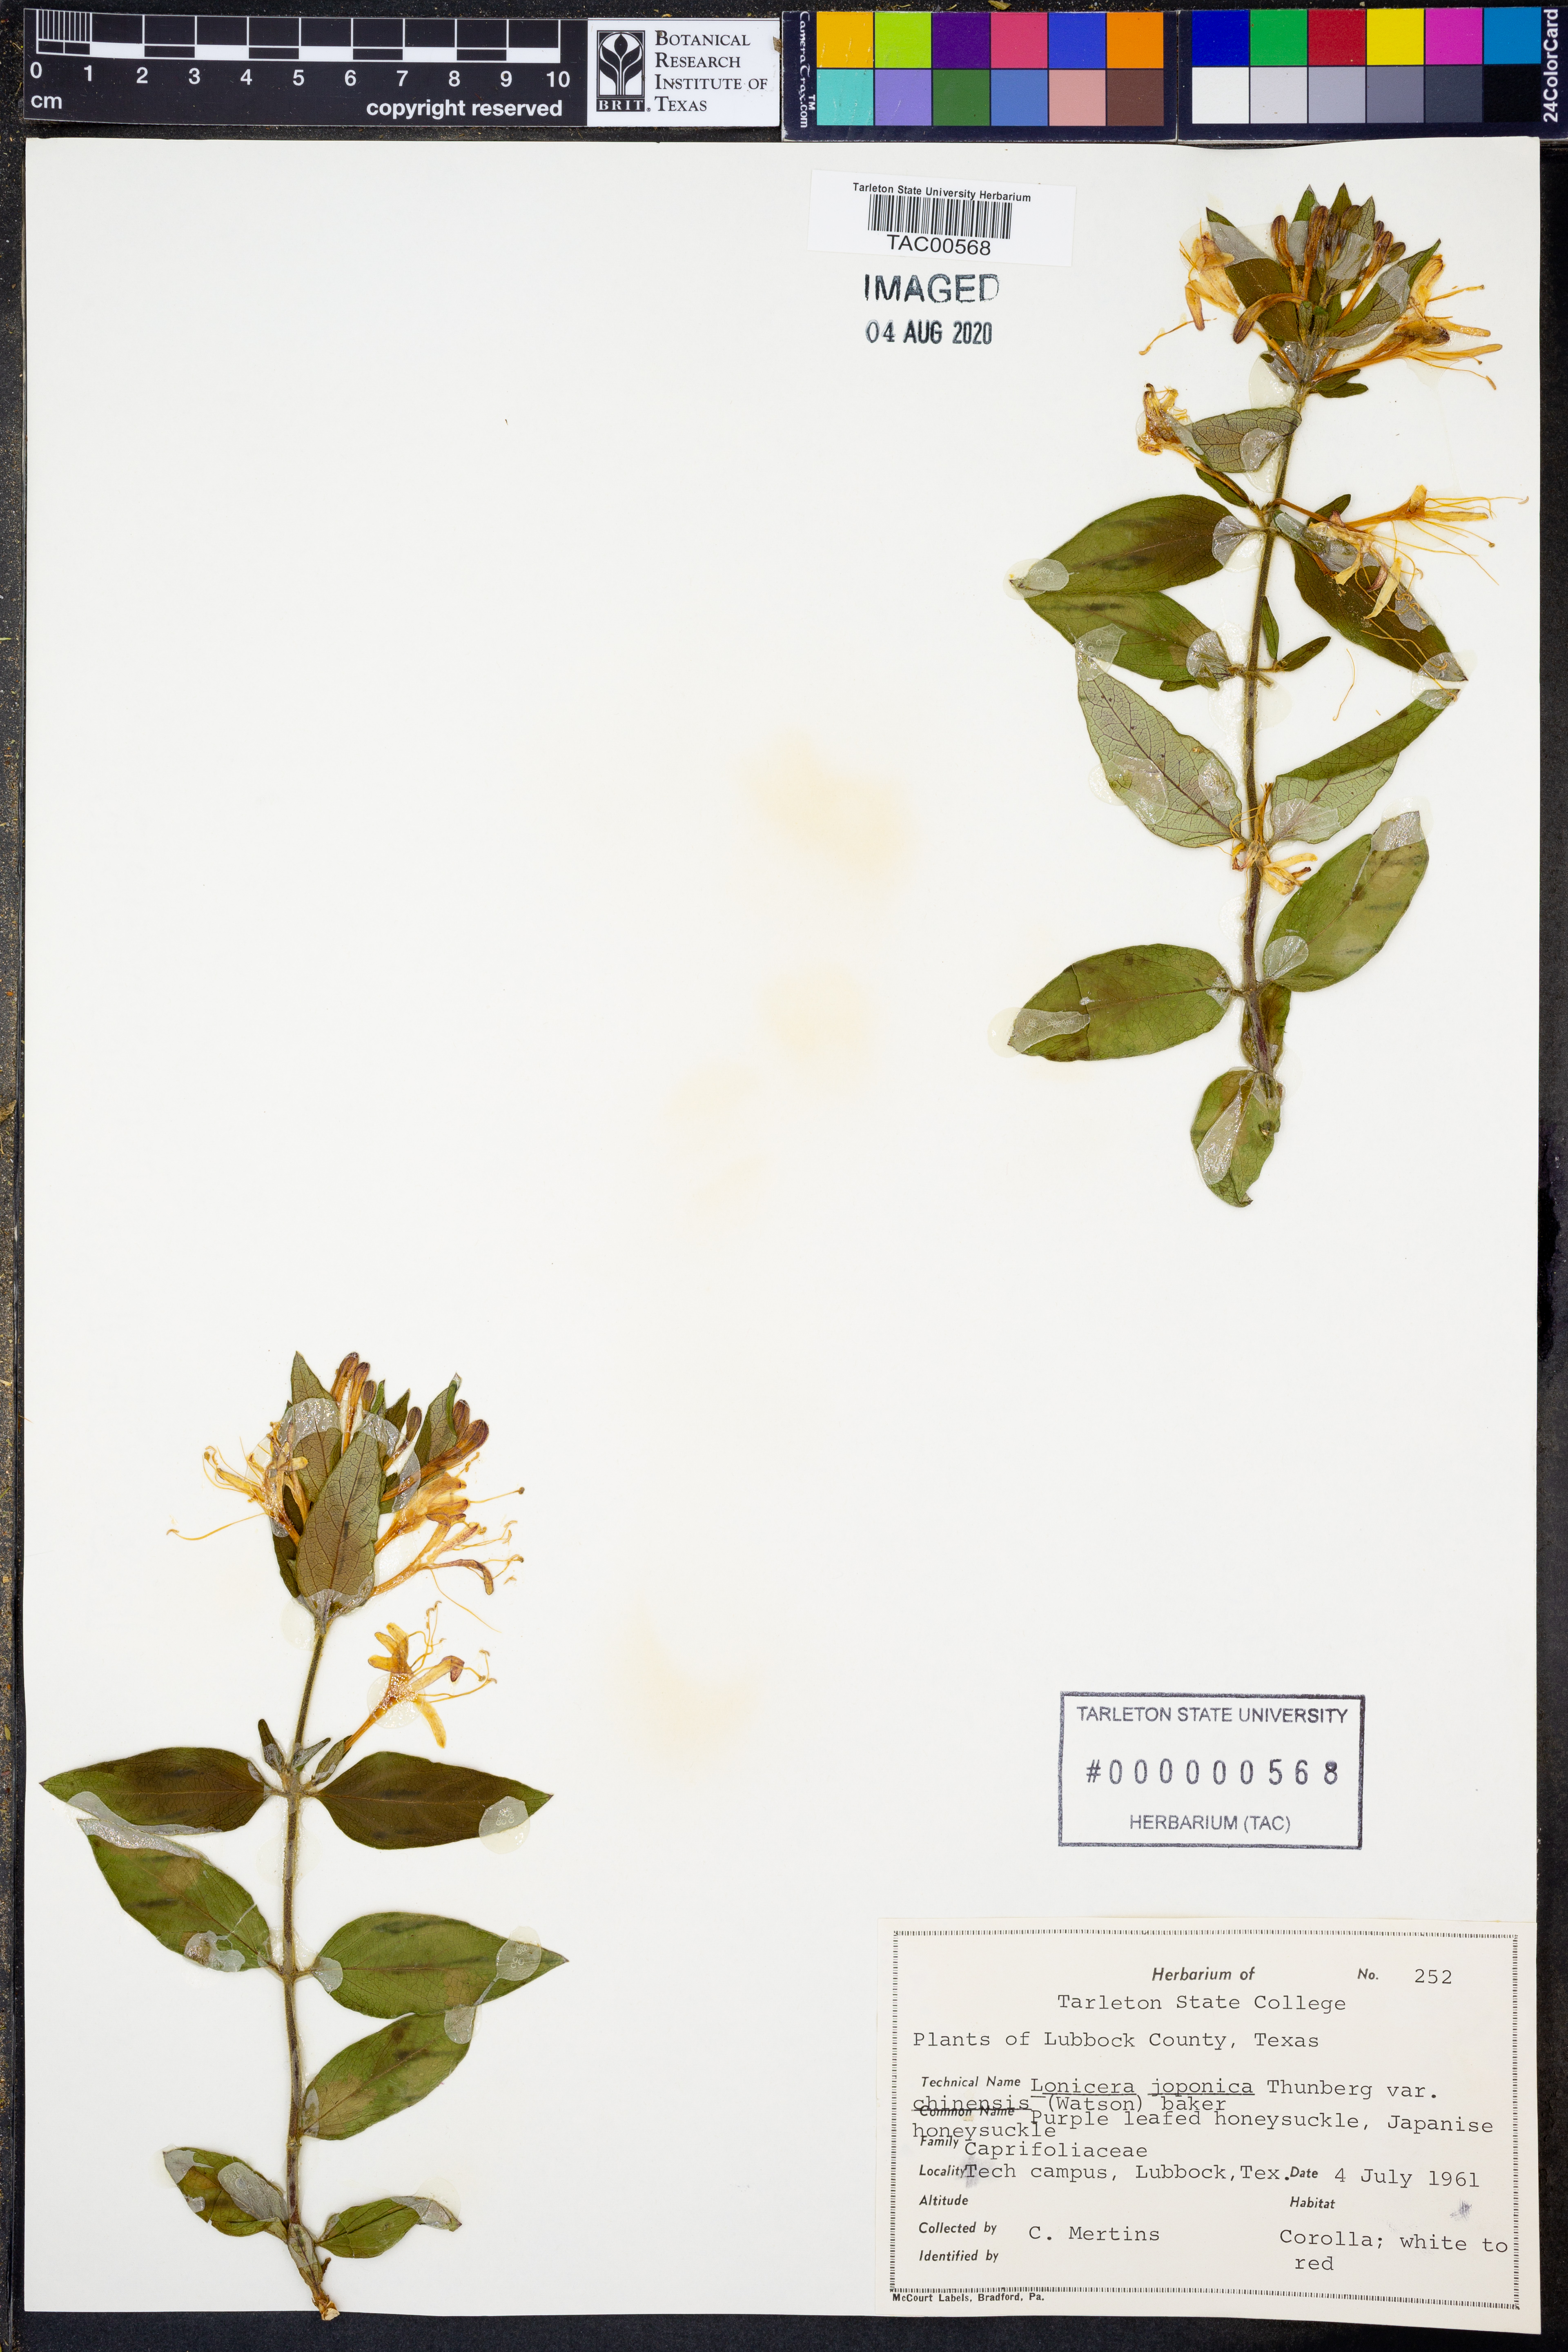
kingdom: Plantae
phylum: Tracheophyta
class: Magnoliopsida
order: Dipsacales
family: Caprifoliaceae
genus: Lonicera
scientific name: Lonicera japonica
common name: Japanese honeysuckle
